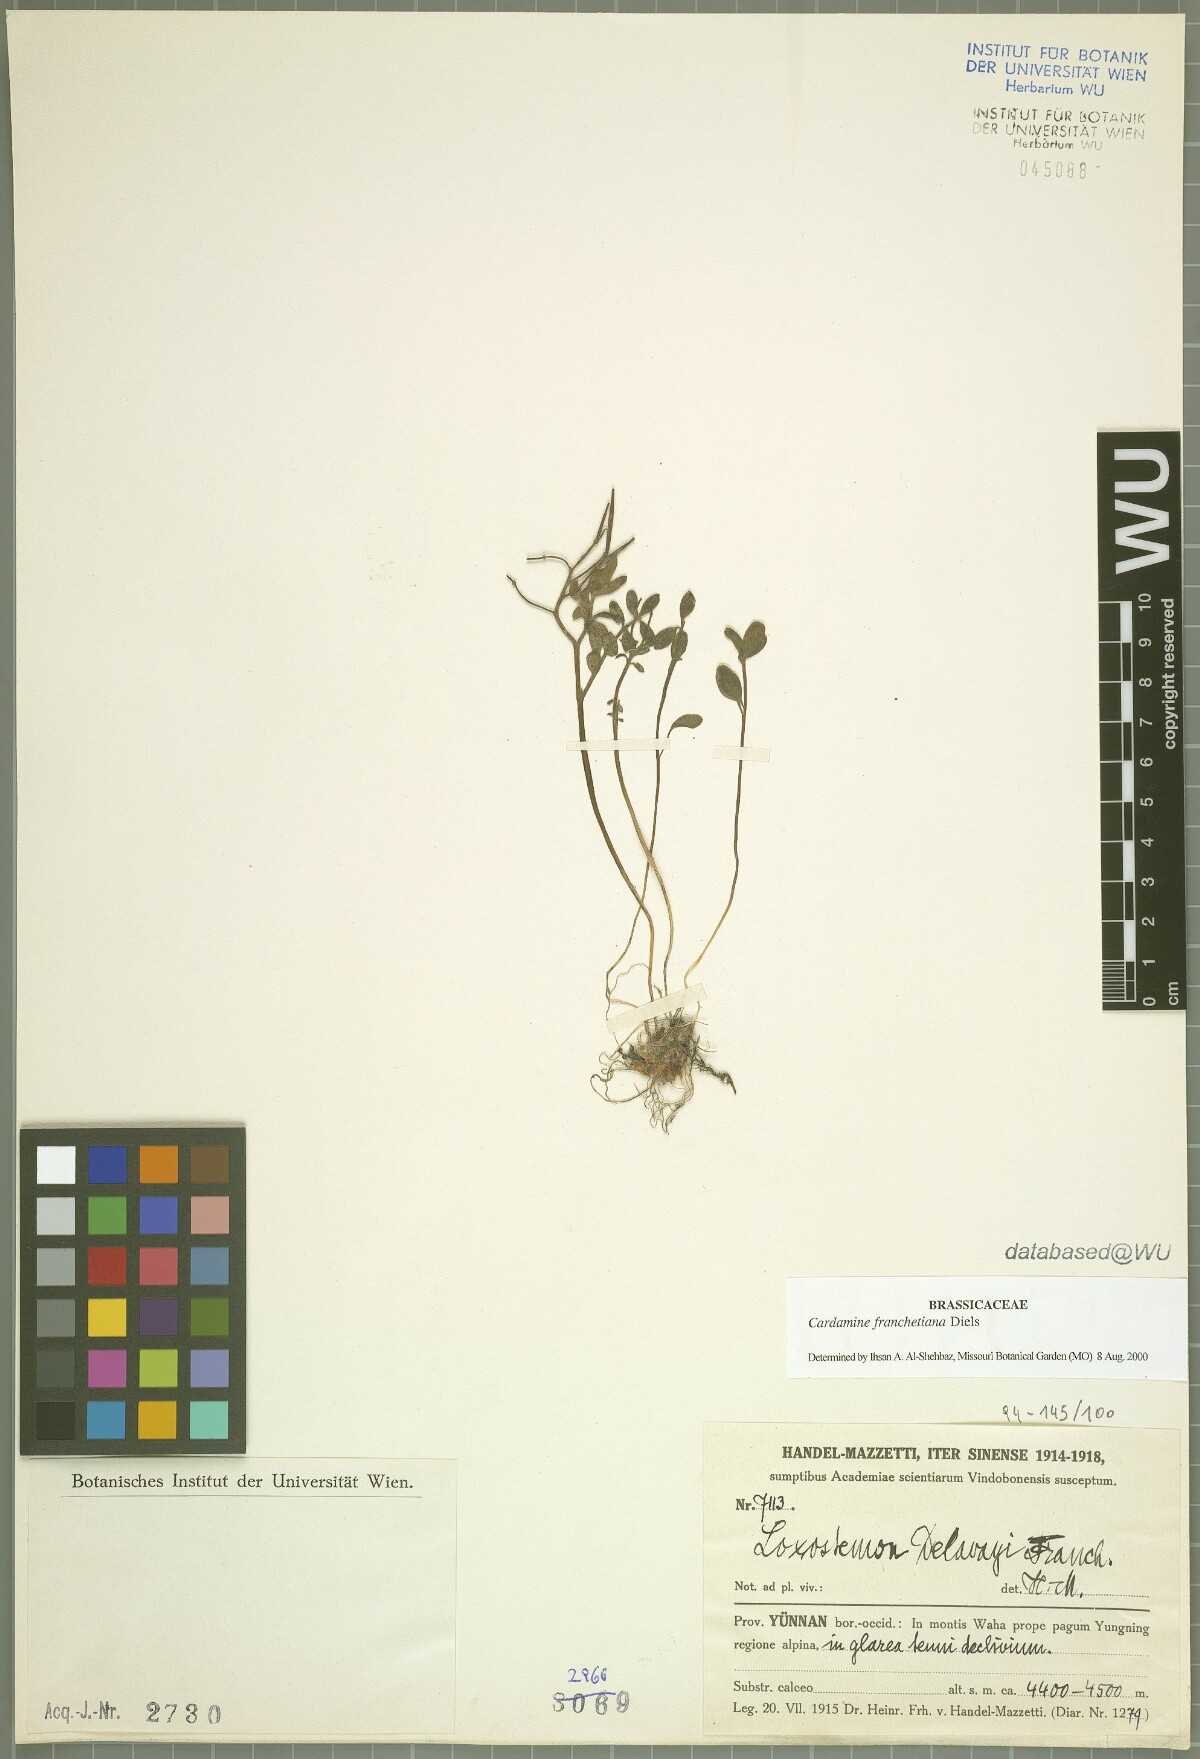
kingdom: Plantae
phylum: Tracheophyta
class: Magnoliopsida
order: Brassicales
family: Brassicaceae
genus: Cardamine
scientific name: Cardamine franchetiana
